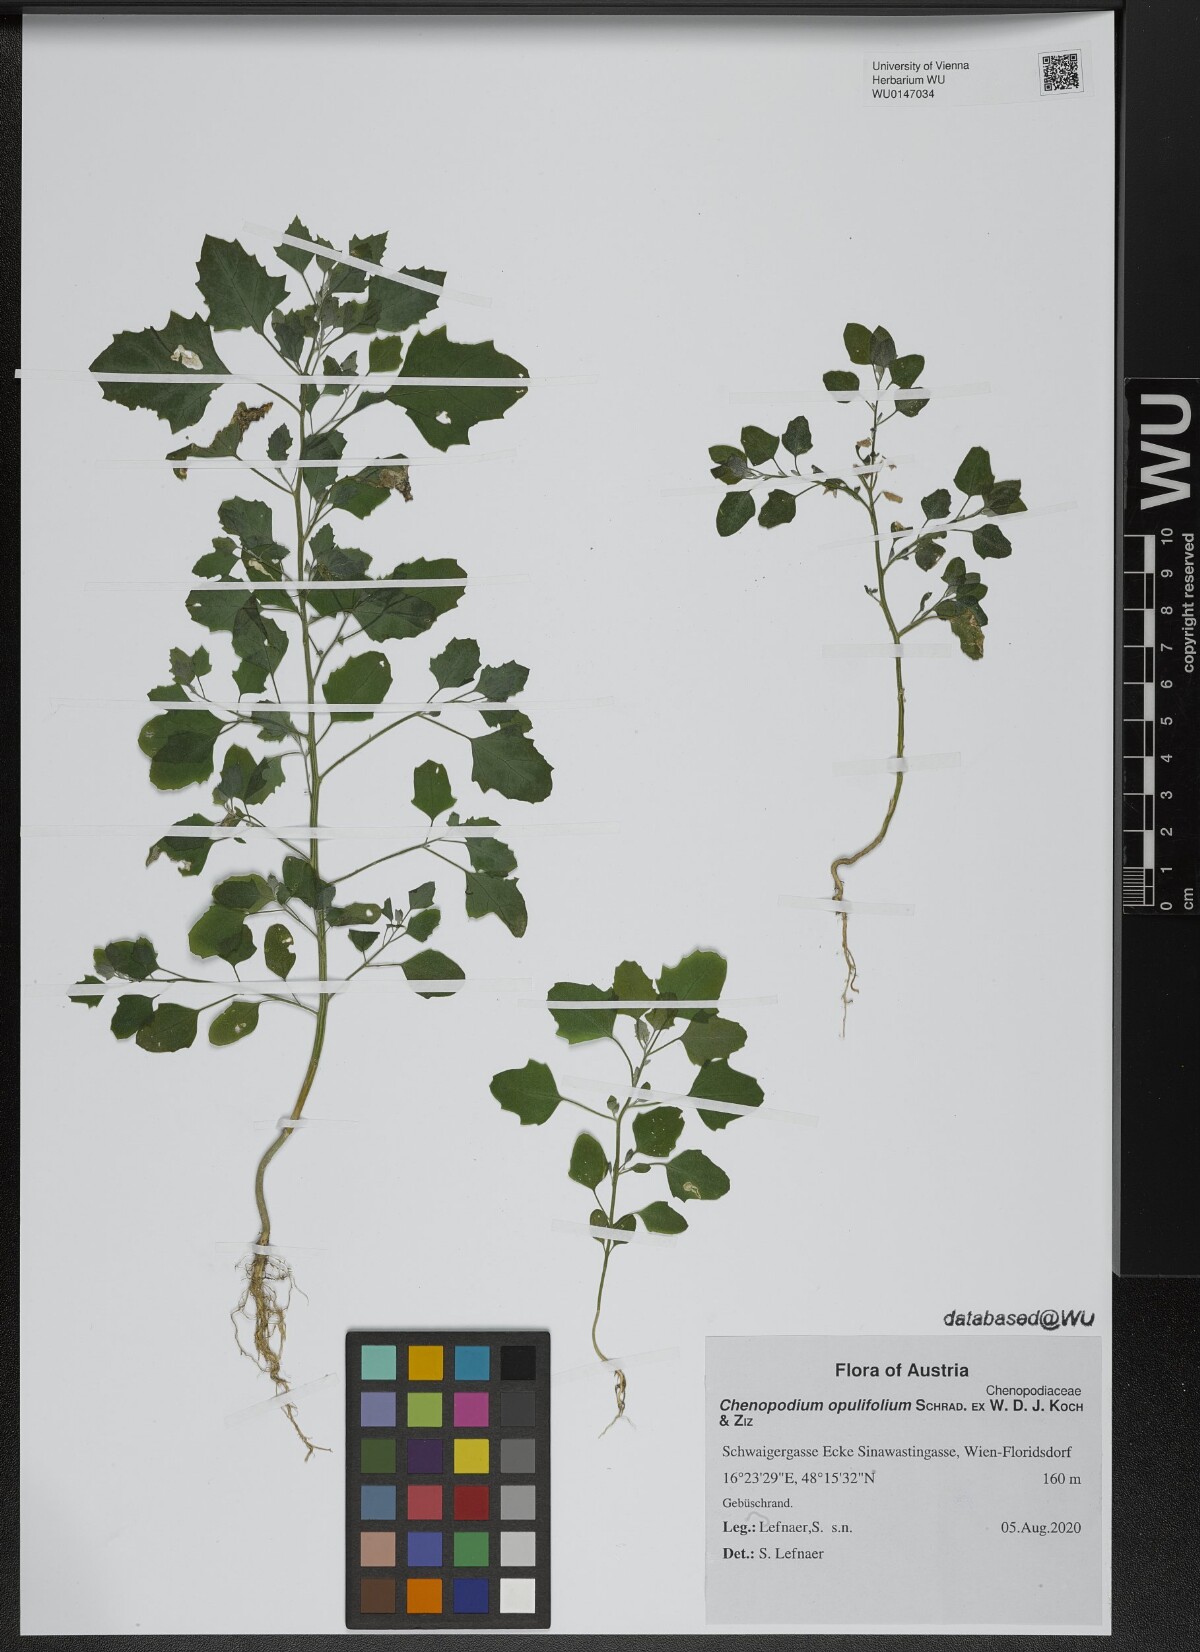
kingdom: Plantae
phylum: Tracheophyta
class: Magnoliopsida
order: Caryophyllales
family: Amaranthaceae
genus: Chenopodium
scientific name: Chenopodium opulifolium
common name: Grey goosefoot
